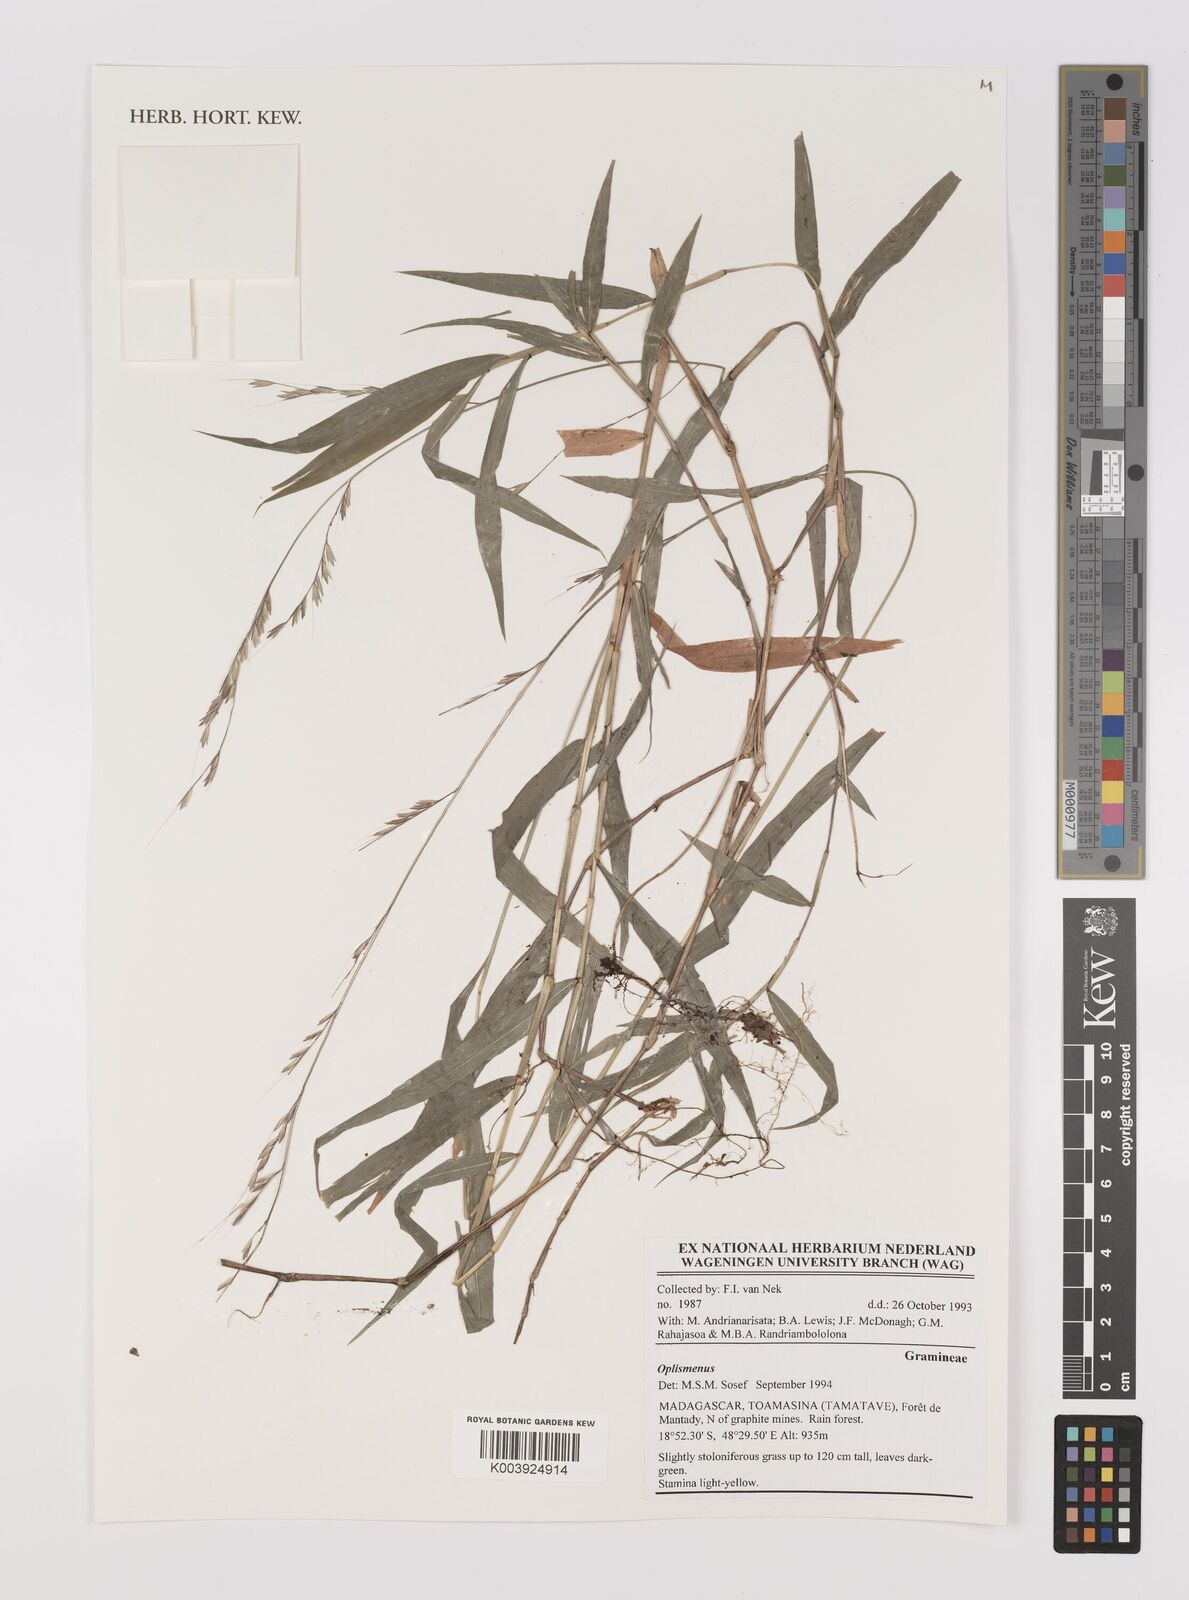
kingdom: Plantae
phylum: Tracheophyta
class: Liliopsida
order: Poales
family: Poaceae
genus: Oplismenus
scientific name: Oplismenus
